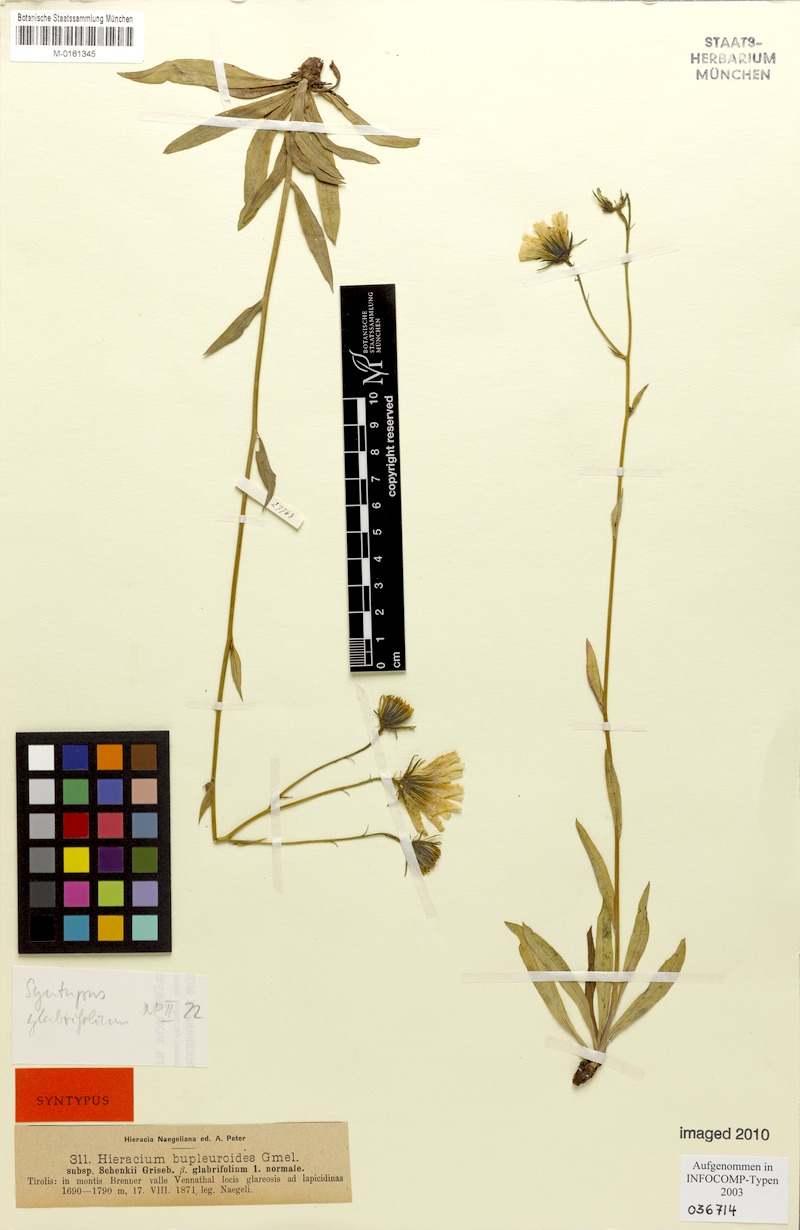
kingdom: Plantae
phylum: Tracheophyta
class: Magnoliopsida
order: Asterales
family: Asteraceae
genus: Hieracium
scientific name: Hieracium bupleuroides
